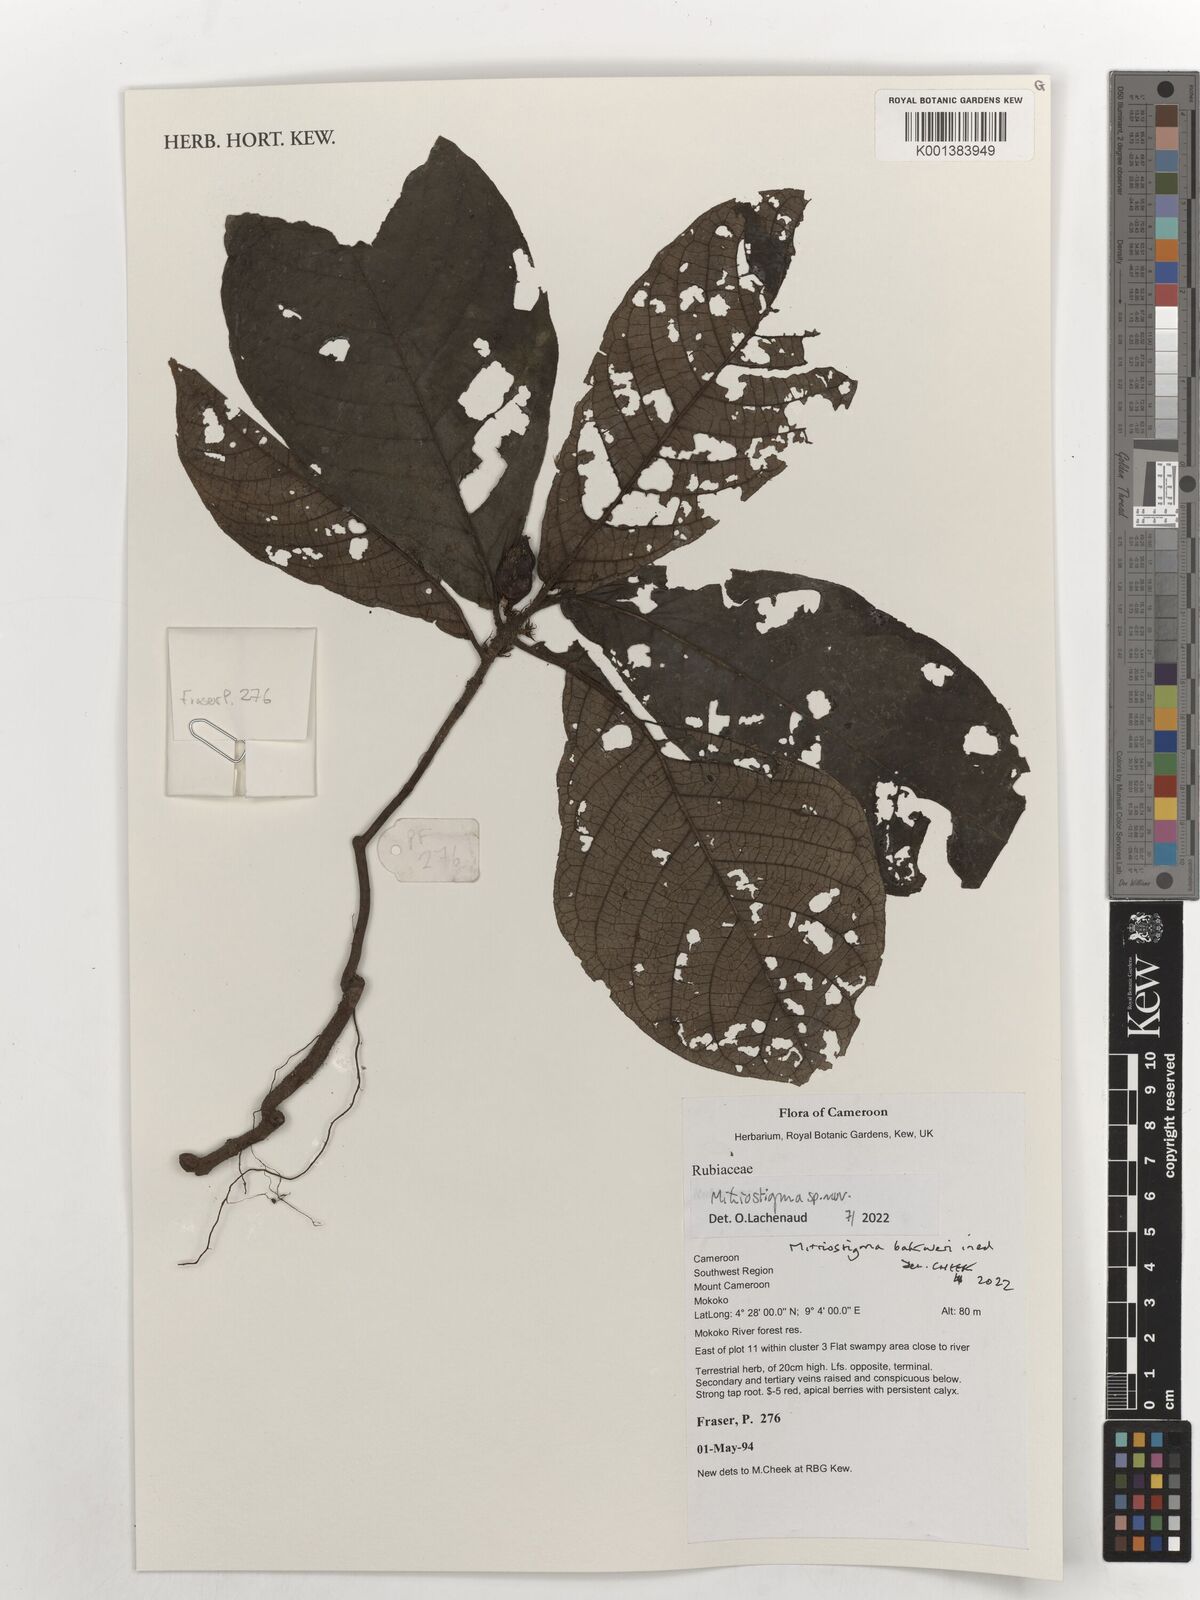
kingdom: Plantae
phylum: Tracheophyta
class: Magnoliopsida
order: Gentianales
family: Rubiaceae
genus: Mitriostigma
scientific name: Mitriostigma
